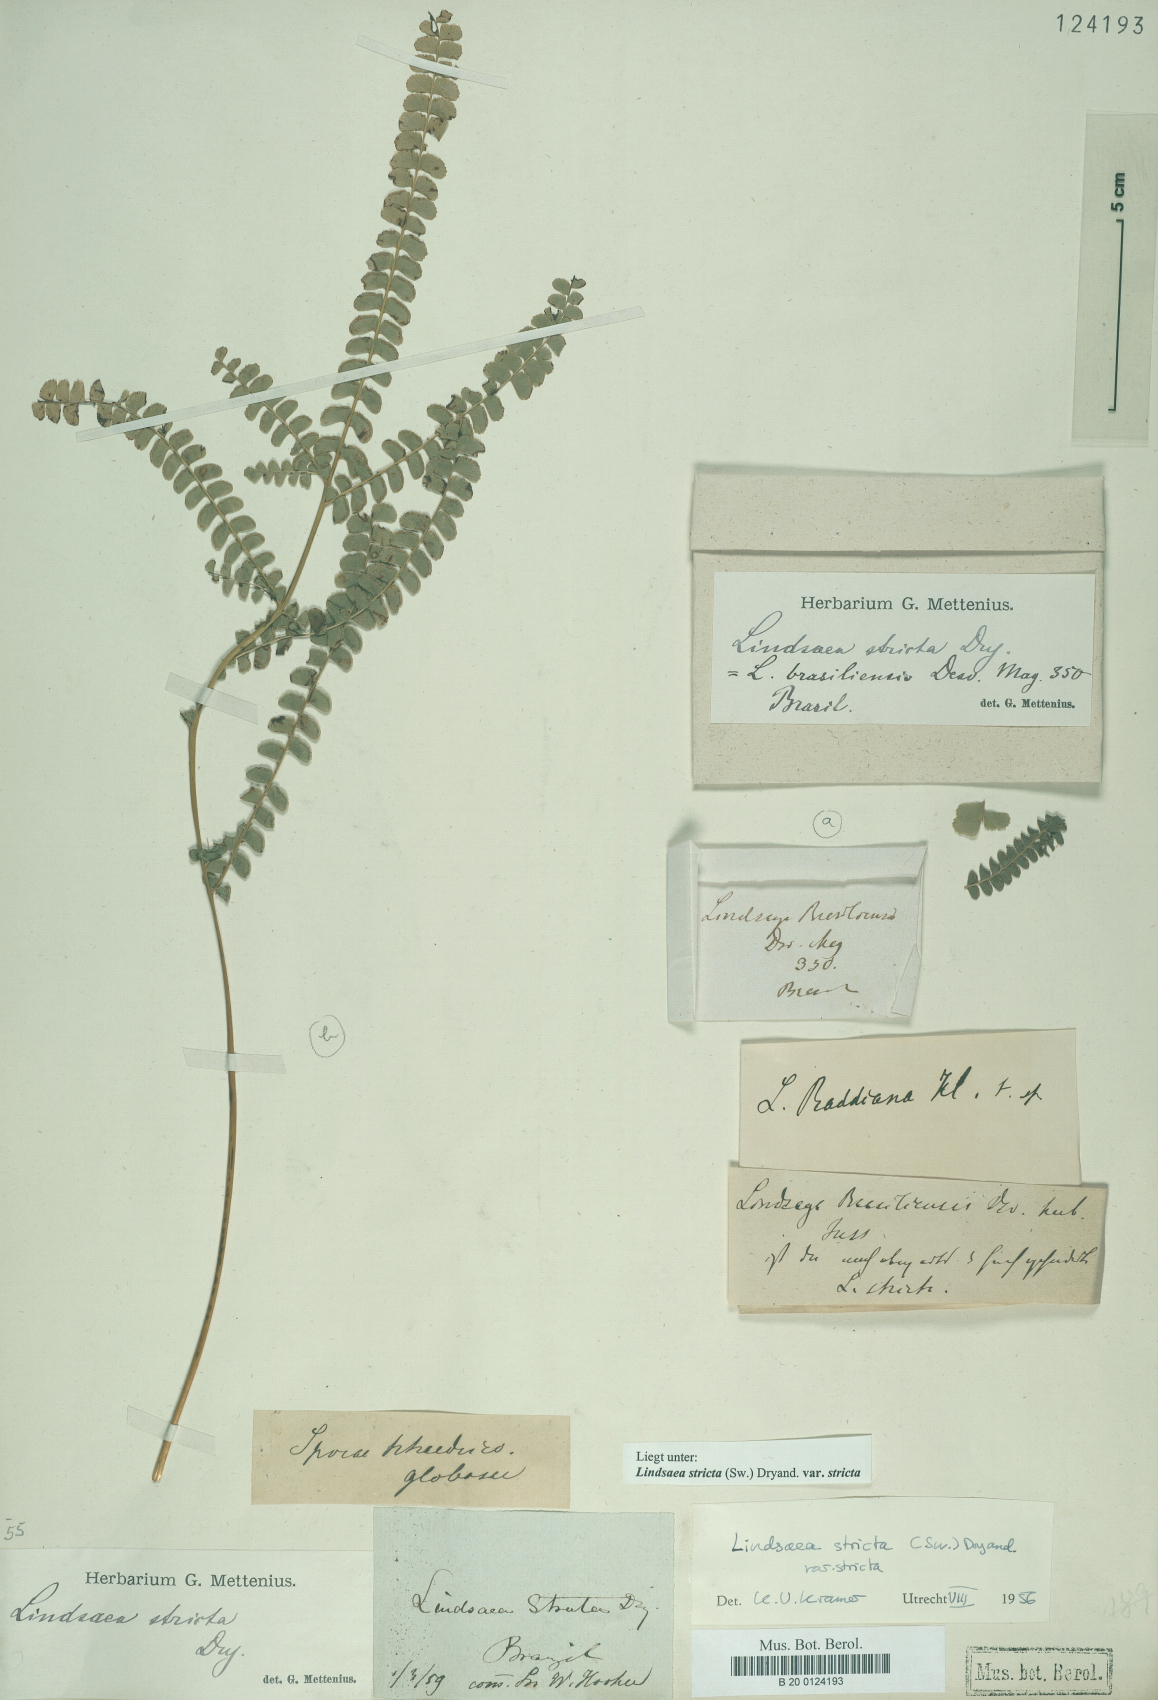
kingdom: Plantae
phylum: Tracheophyta
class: Polypodiopsida
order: Polypodiales
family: Lindsaeaceae
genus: Lindsaea
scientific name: Lindsaea stricta
